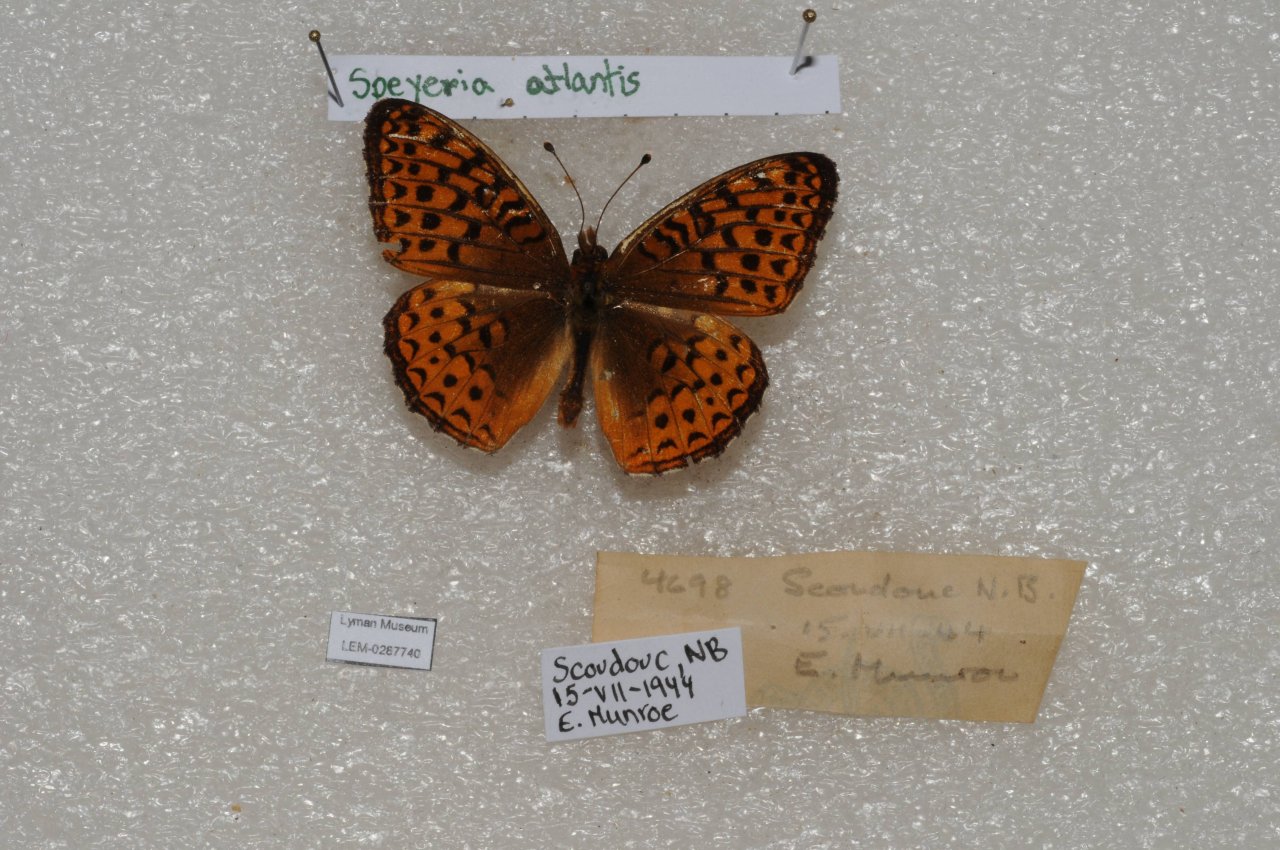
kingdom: Animalia
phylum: Arthropoda
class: Insecta
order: Lepidoptera
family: Nymphalidae
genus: Speyeria
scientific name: Speyeria atlantis
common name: Atlantis Fritillary
